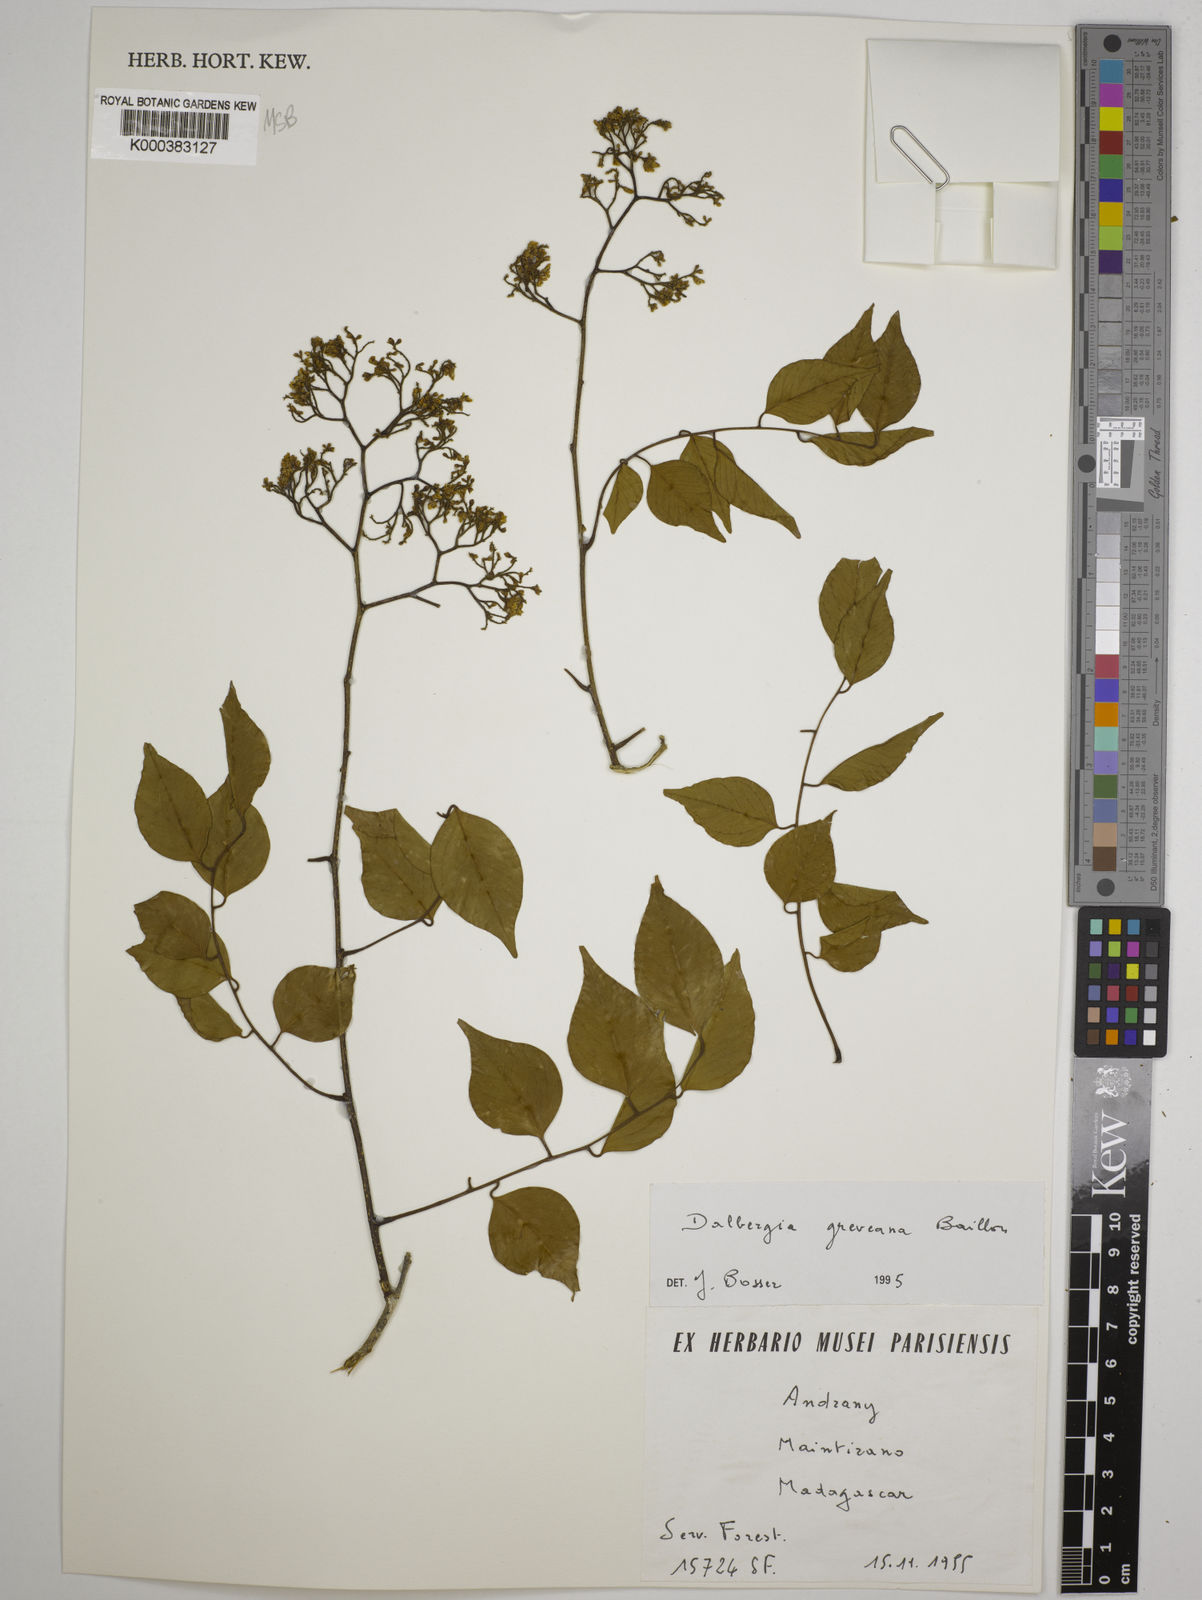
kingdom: Plantae
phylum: Tracheophyta
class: Magnoliopsida
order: Fabales
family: Fabaceae
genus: Dalbergia
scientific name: Dalbergia greveana
